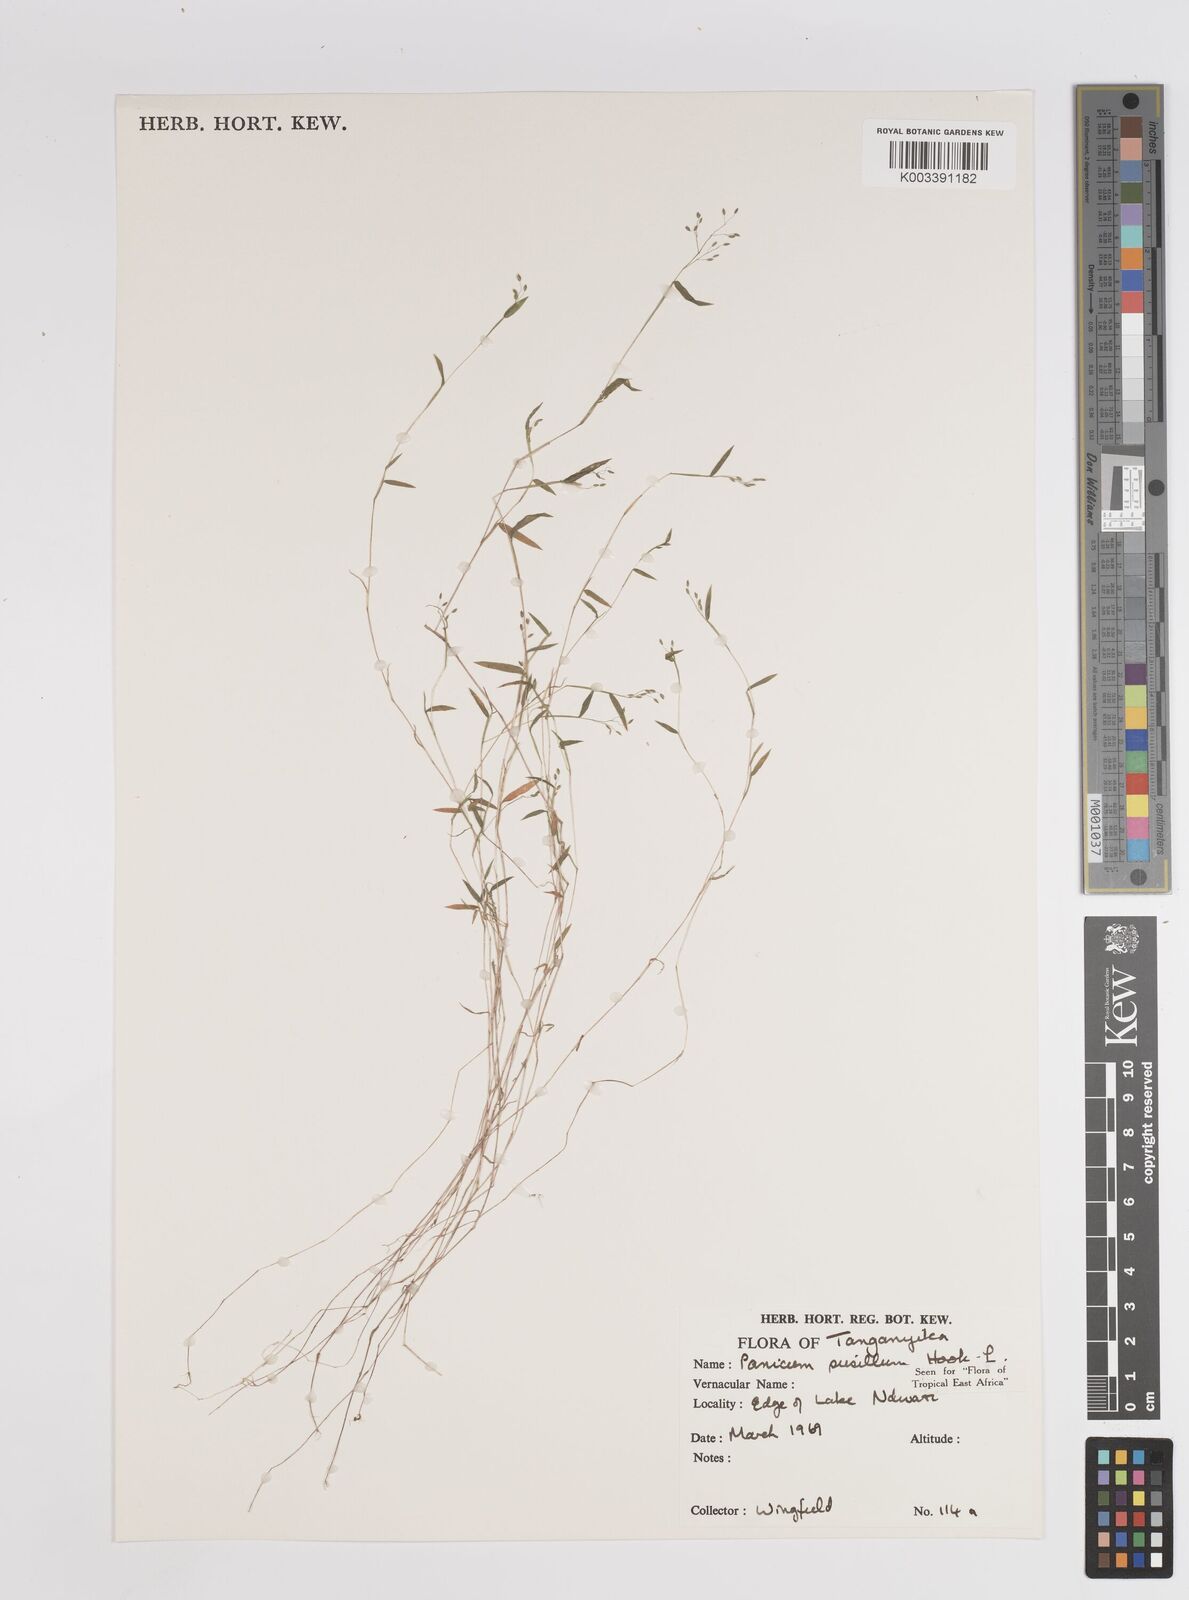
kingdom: Plantae
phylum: Tracheophyta
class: Liliopsida
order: Poales
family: Poaceae
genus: Panicum
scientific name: Panicum pusillum
